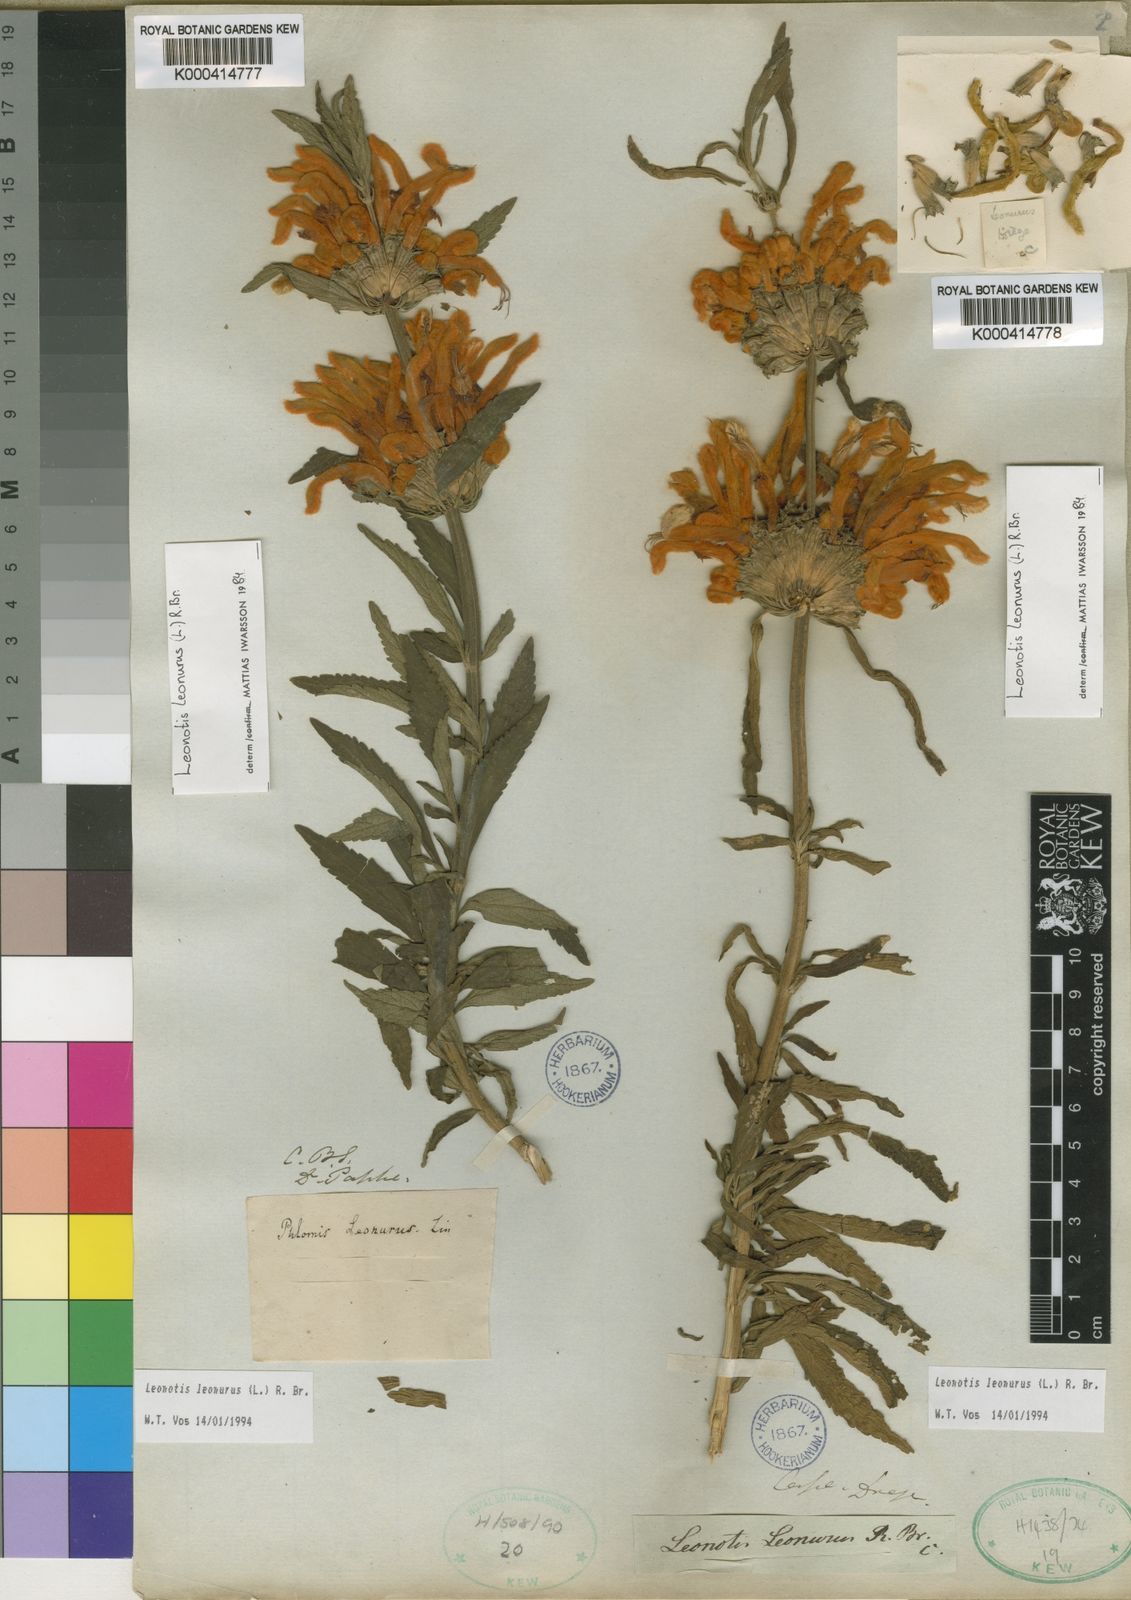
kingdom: Plantae
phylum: Tracheophyta
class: Magnoliopsida
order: Lamiales
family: Lamiaceae
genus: Leonotis
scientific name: Leonotis leonurus
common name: Lion's ear
